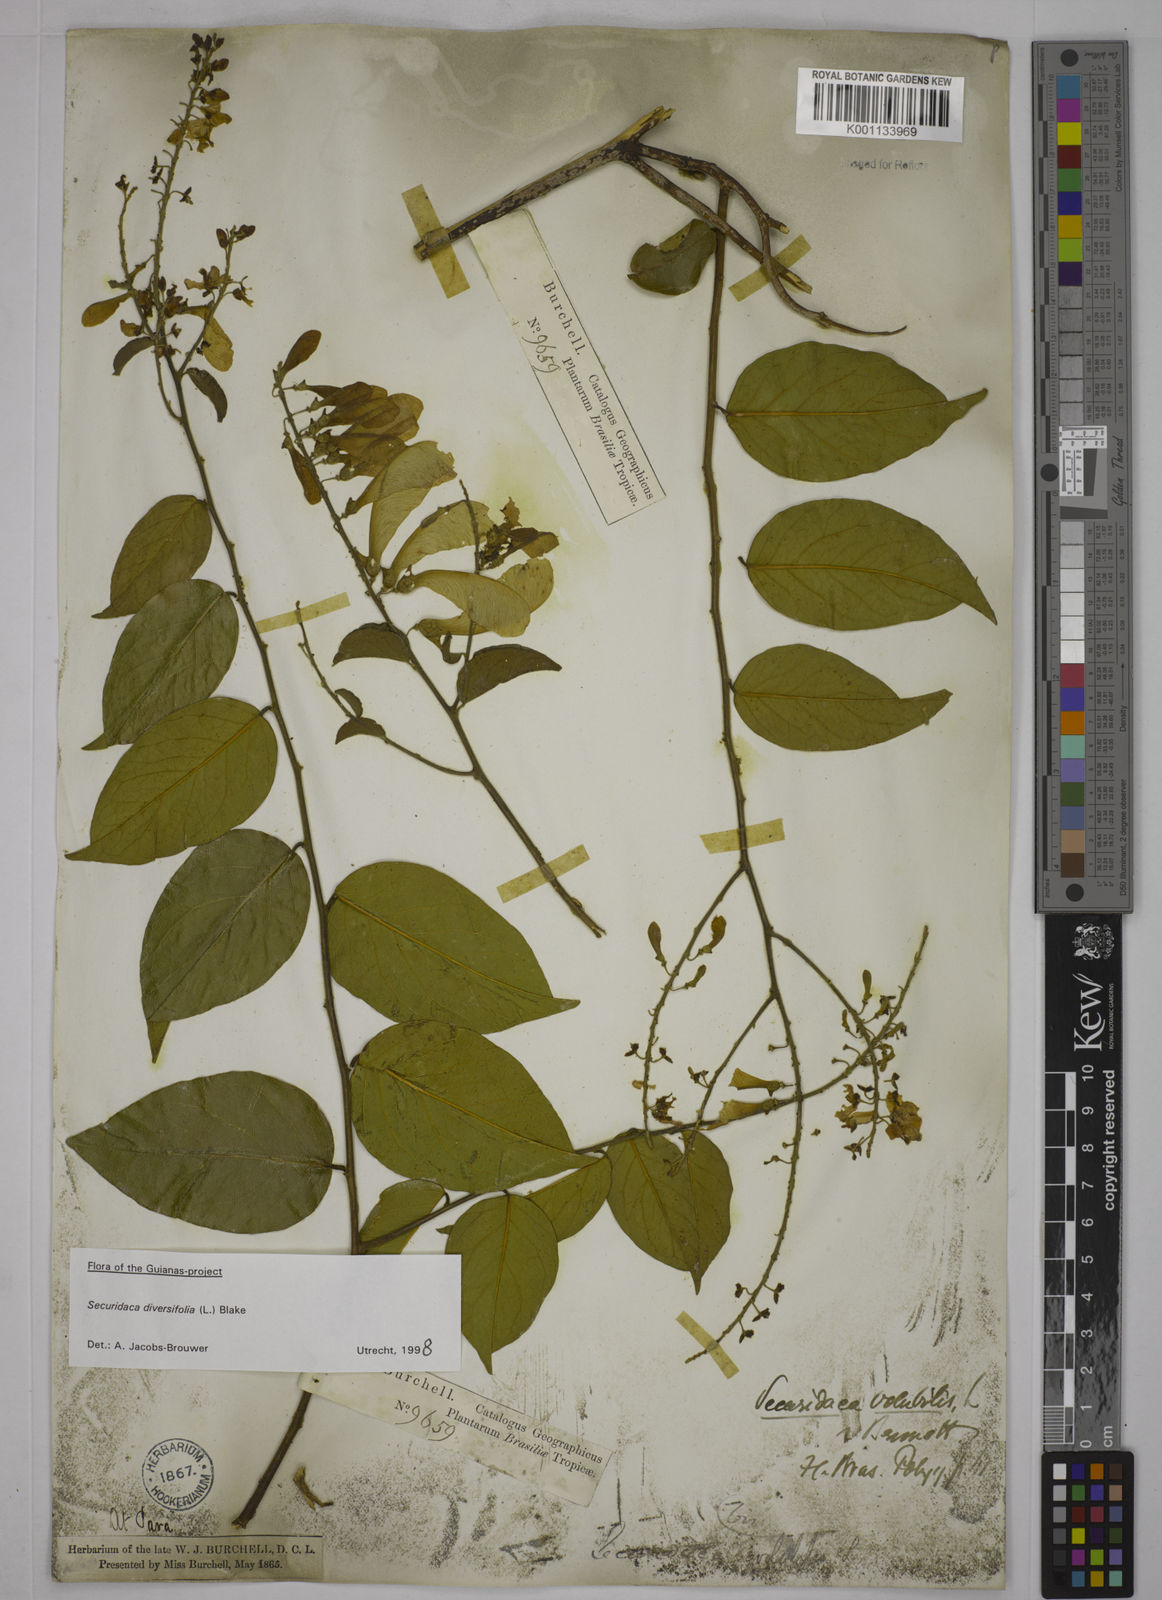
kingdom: Plantae
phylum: Tracheophyta
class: Magnoliopsida
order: Fabales
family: Polygalaceae
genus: Securidaca
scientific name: Securidaca diversifolia
